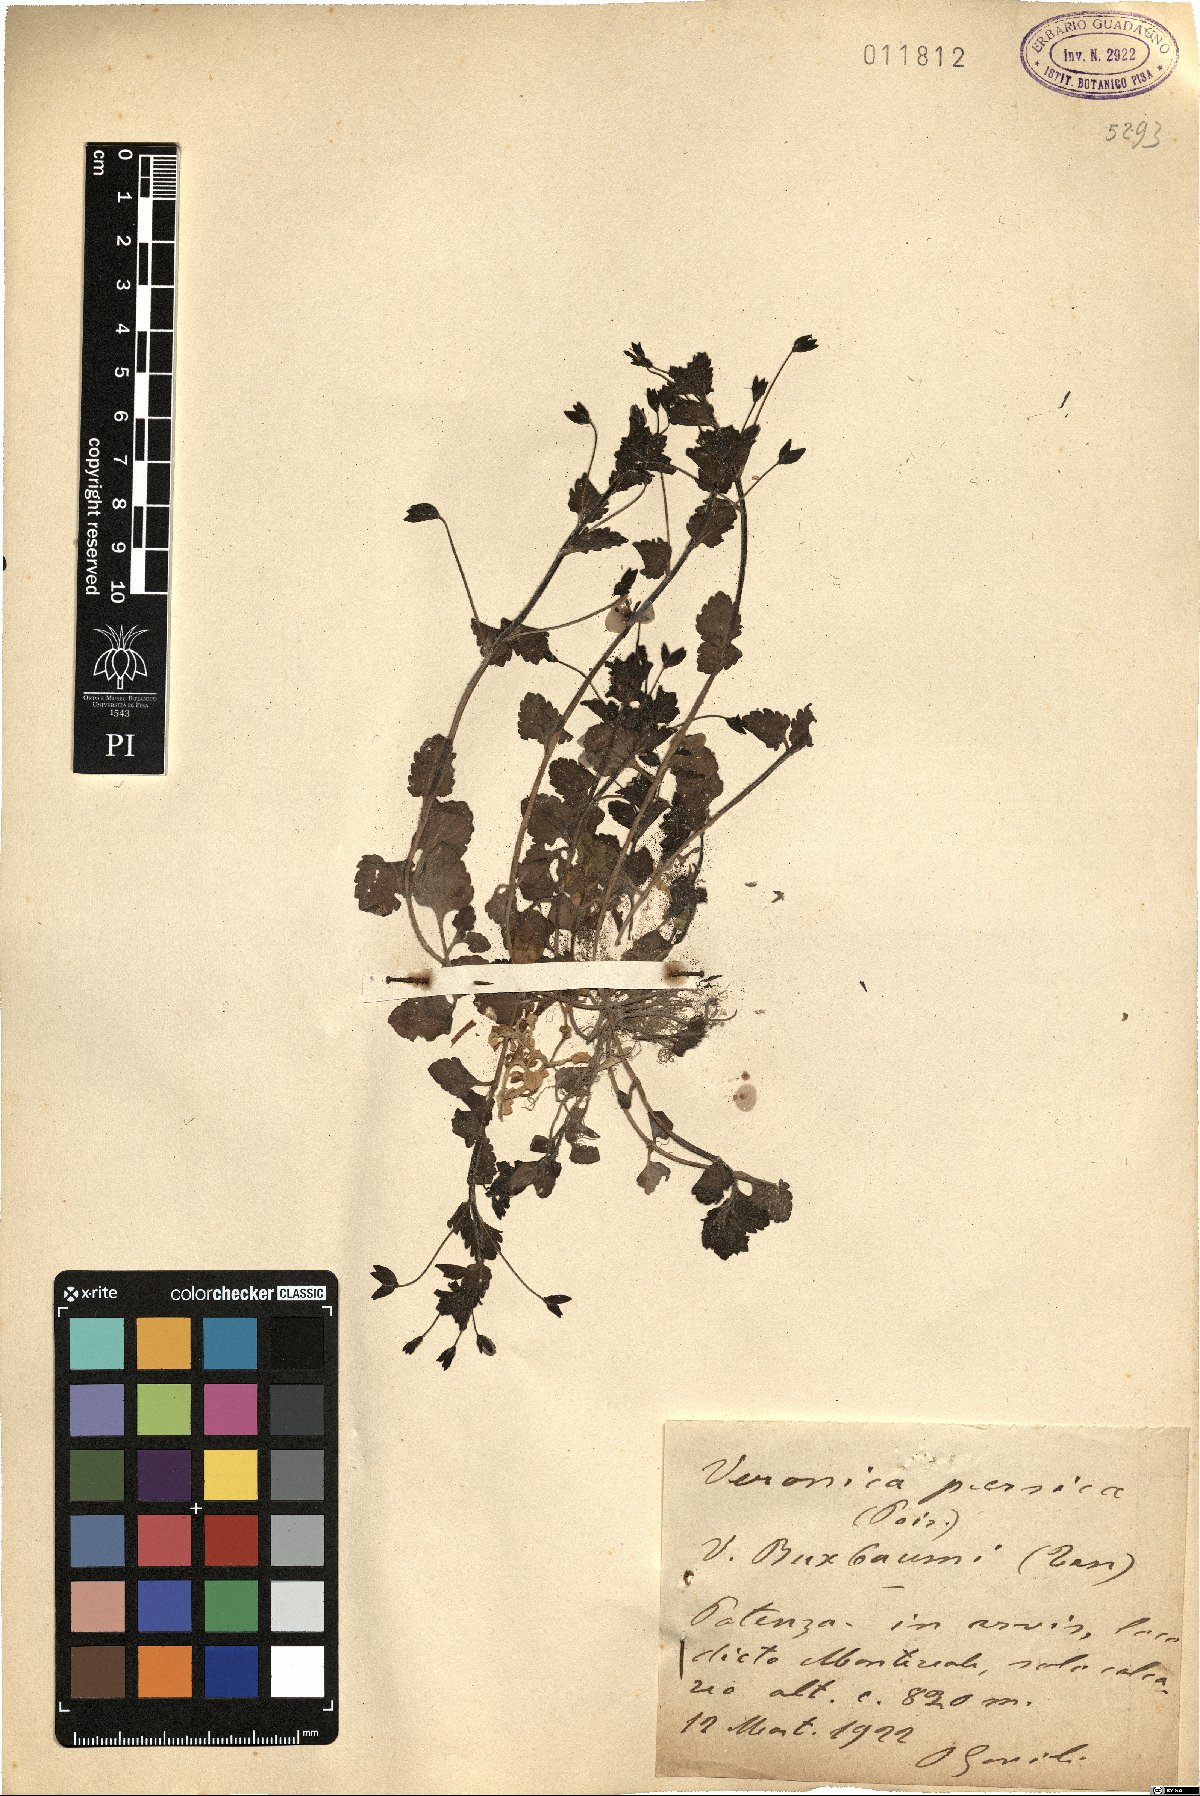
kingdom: Plantae
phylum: Tracheophyta
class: Magnoliopsida
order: Lamiales
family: Plantaginaceae
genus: Veronica
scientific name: Veronica persica
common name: Common field-speedwell
